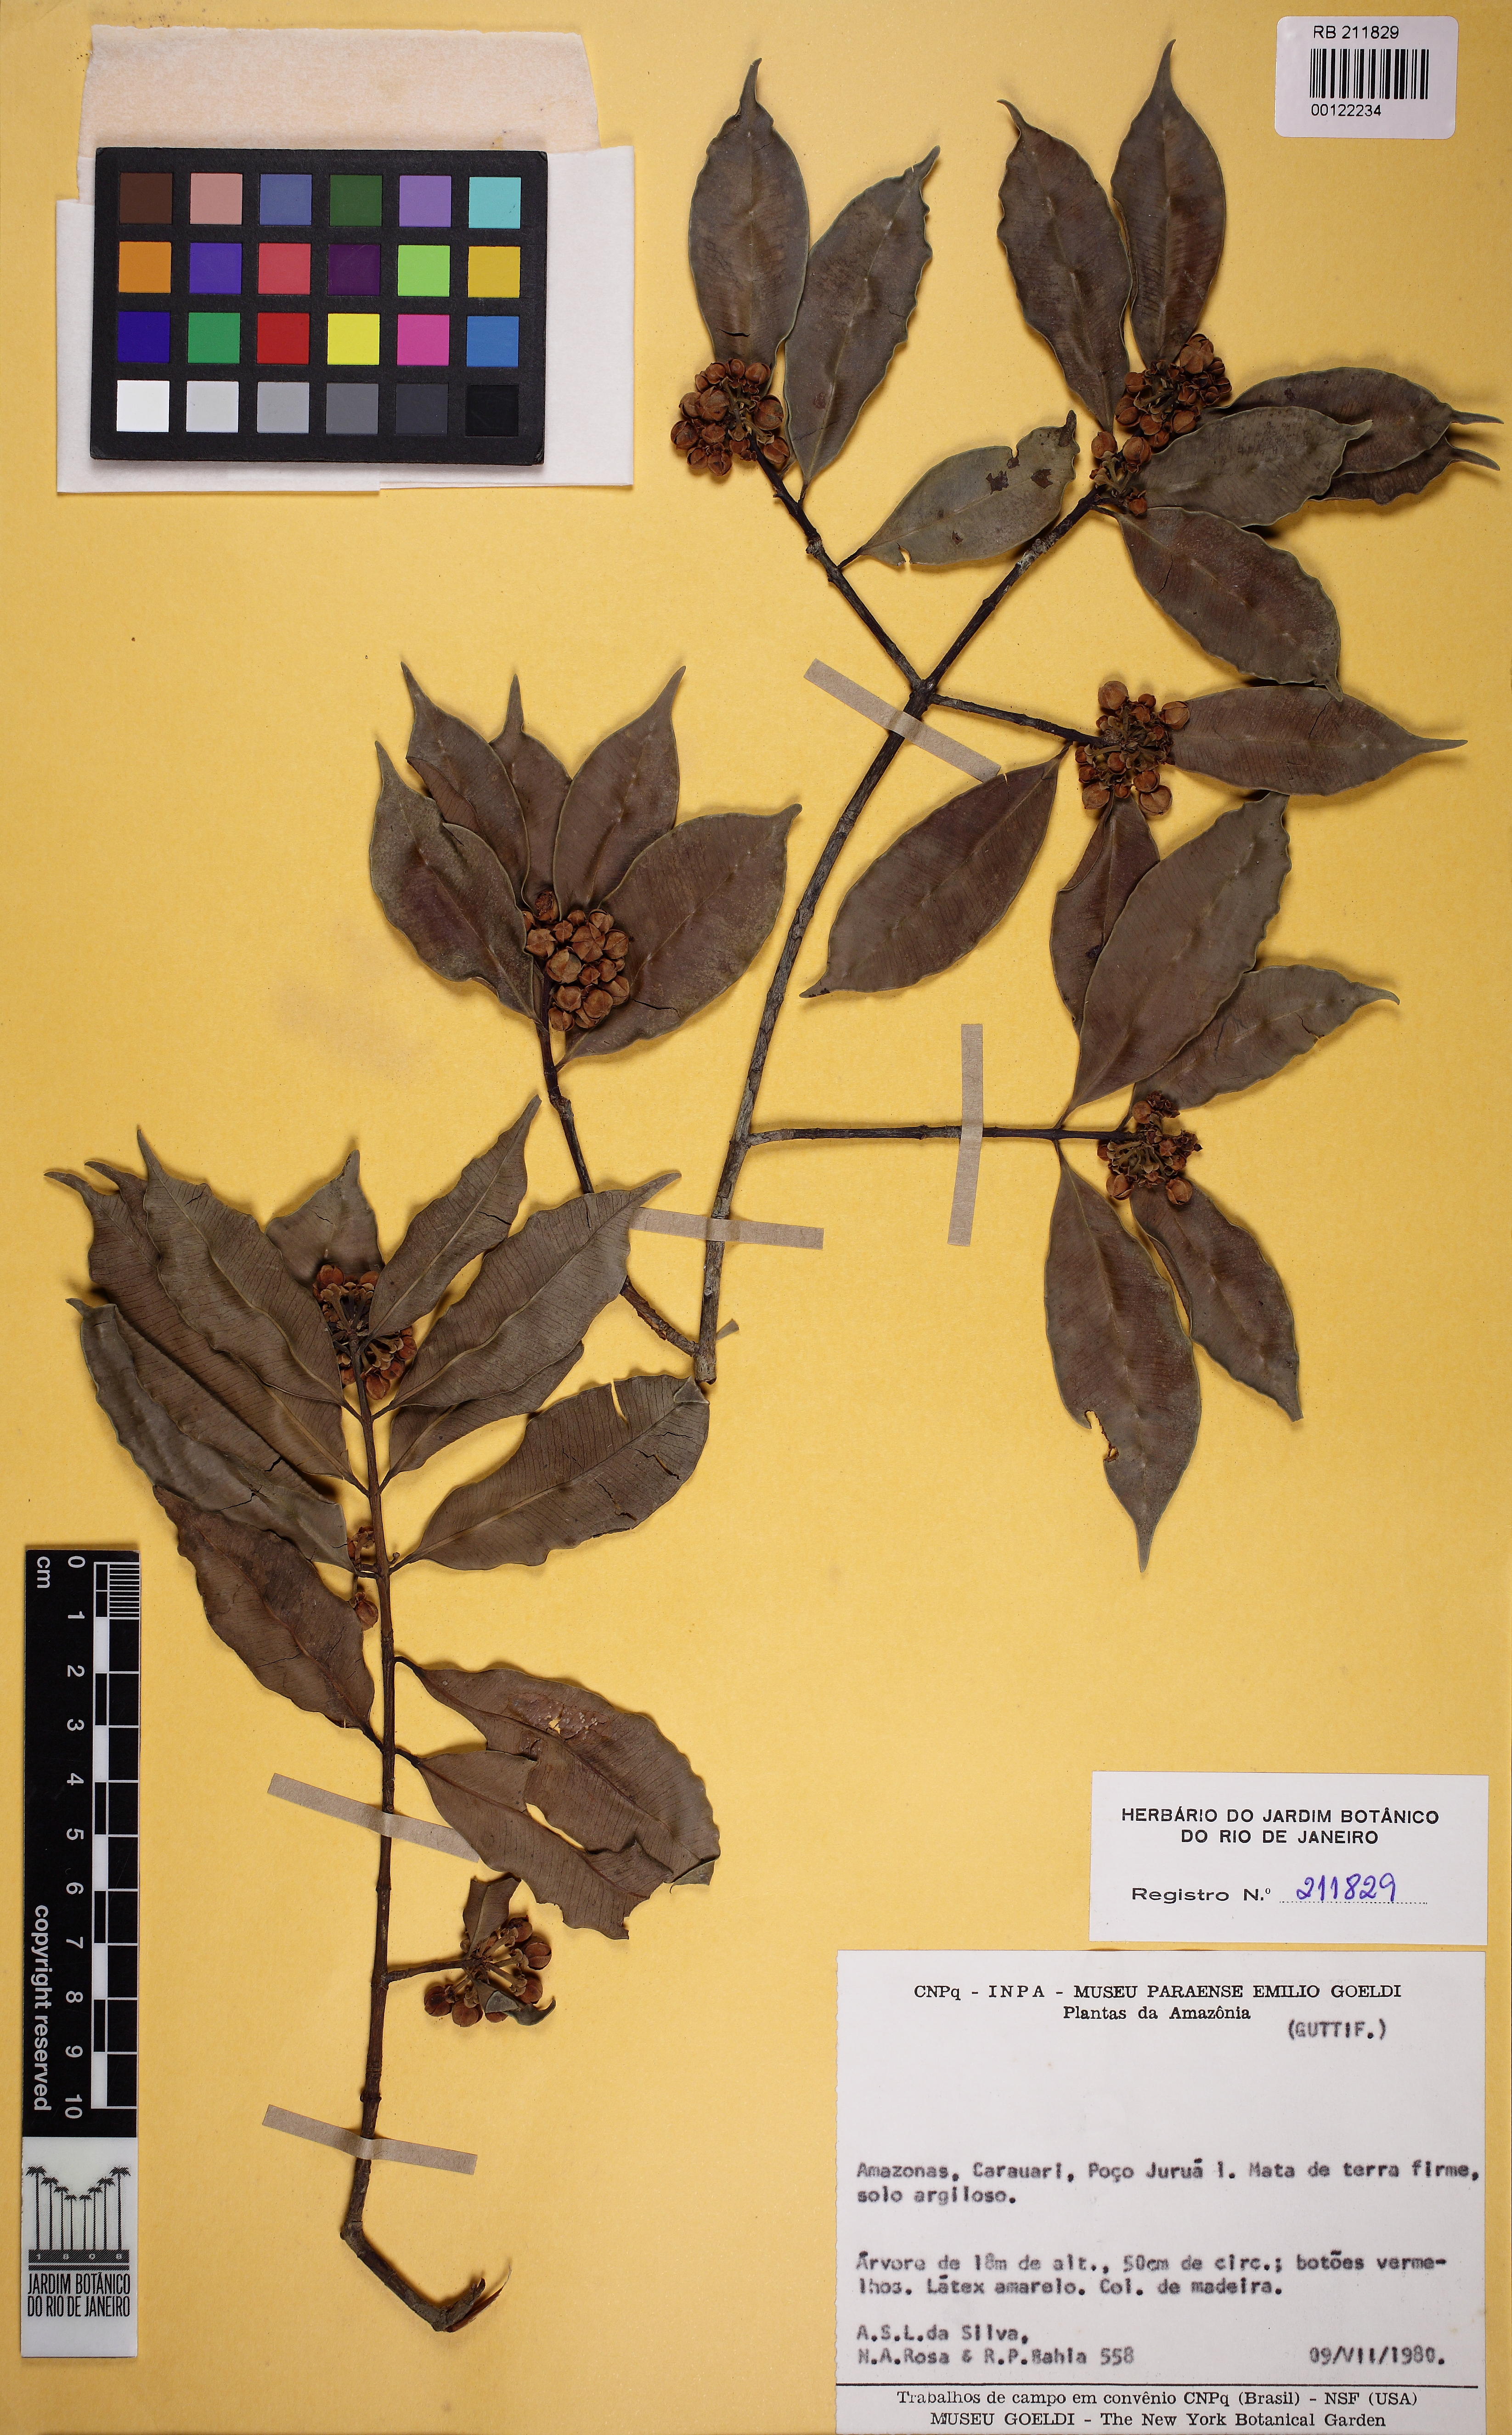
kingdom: Plantae
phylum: Tracheophyta
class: Magnoliopsida
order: Malpighiales
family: Clusiaceae
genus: Symphonia
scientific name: Symphonia globulifera
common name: Boarwood
